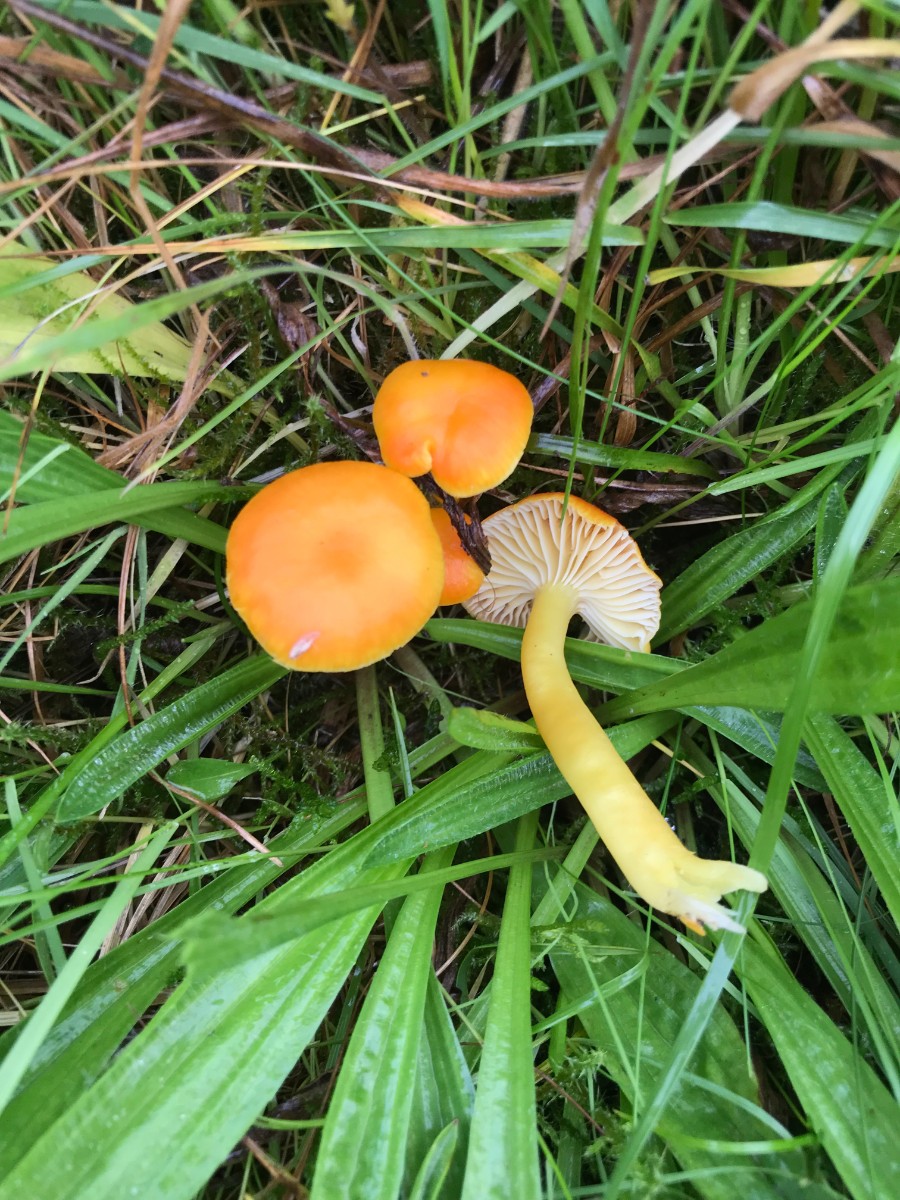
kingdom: Fungi
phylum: Basidiomycota
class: Agaricomycetes
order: Agaricales
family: Hygrophoraceae
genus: Hygrocybe
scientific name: Hygrocybe reidii
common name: honning-vokshat
